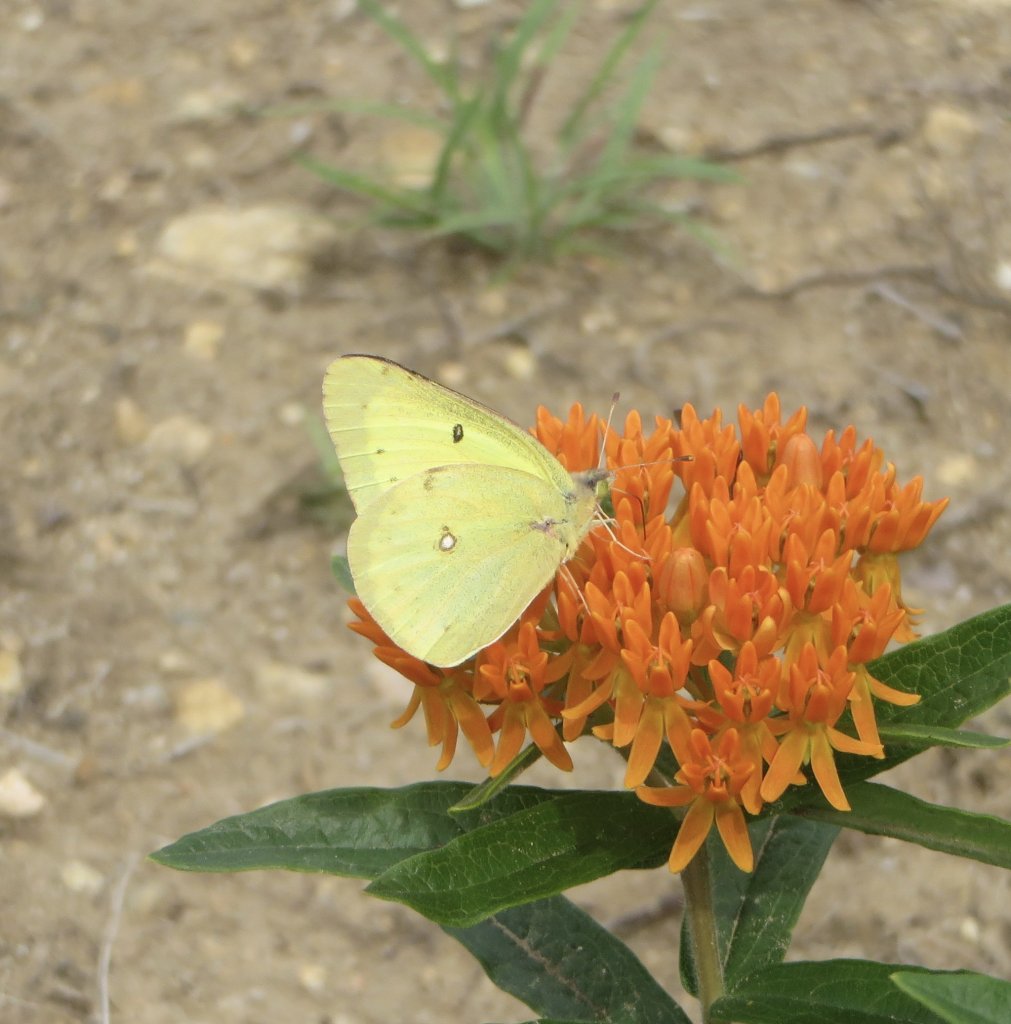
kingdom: Animalia
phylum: Arthropoda
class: Insecta
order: Lepidoptera
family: Pieridae
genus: Colias
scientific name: Colias philodice
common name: Clouded Sulphur
